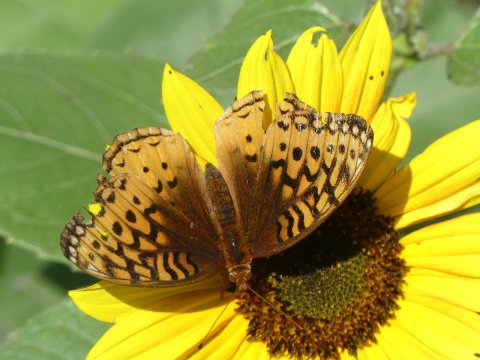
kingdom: Animalia
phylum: Arthropoda
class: Insecta
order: Lepidoptera
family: Nymphalidae
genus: Speyeria
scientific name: Speyeria cybele
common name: Great Spangled Fritillary
